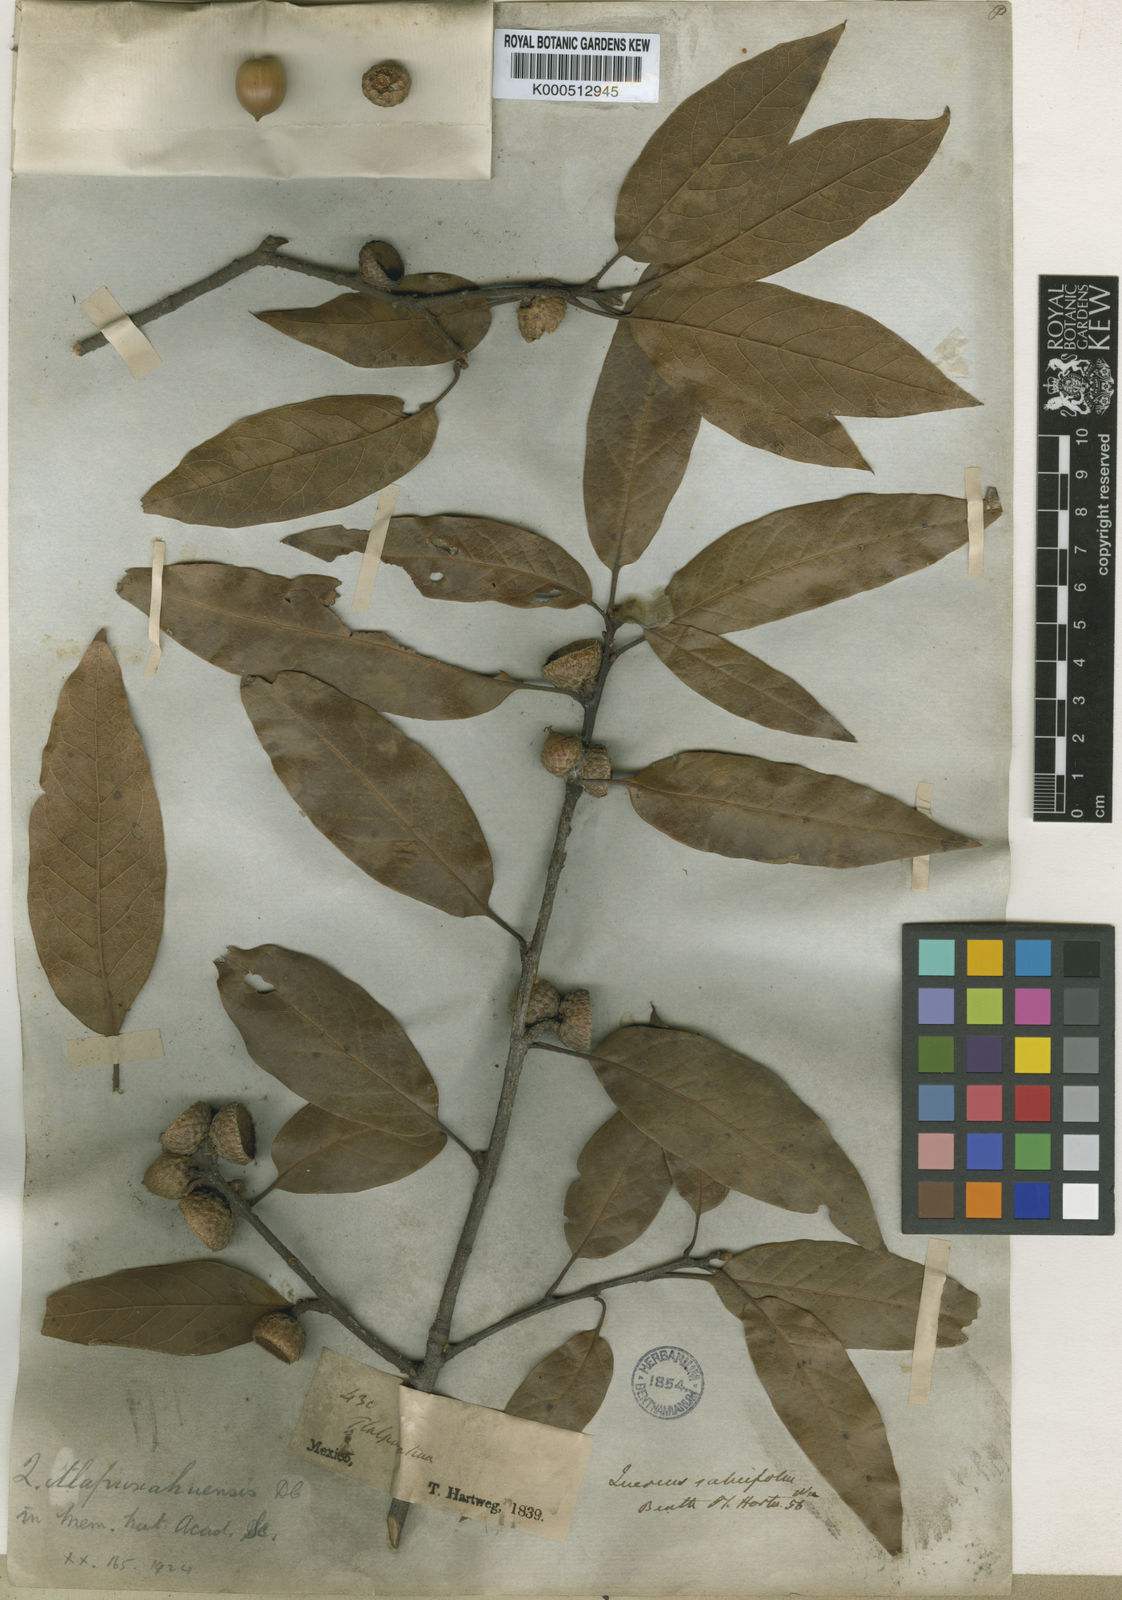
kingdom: Plantae
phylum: Tracheophyta
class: Magnoliopsida
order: Fagales
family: Fagaceae
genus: Quercus
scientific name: Quercus laurina
